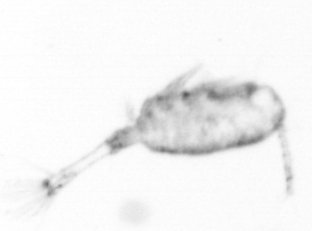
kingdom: Animalia
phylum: Arthropoda
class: Copepoda
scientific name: Copepoda
